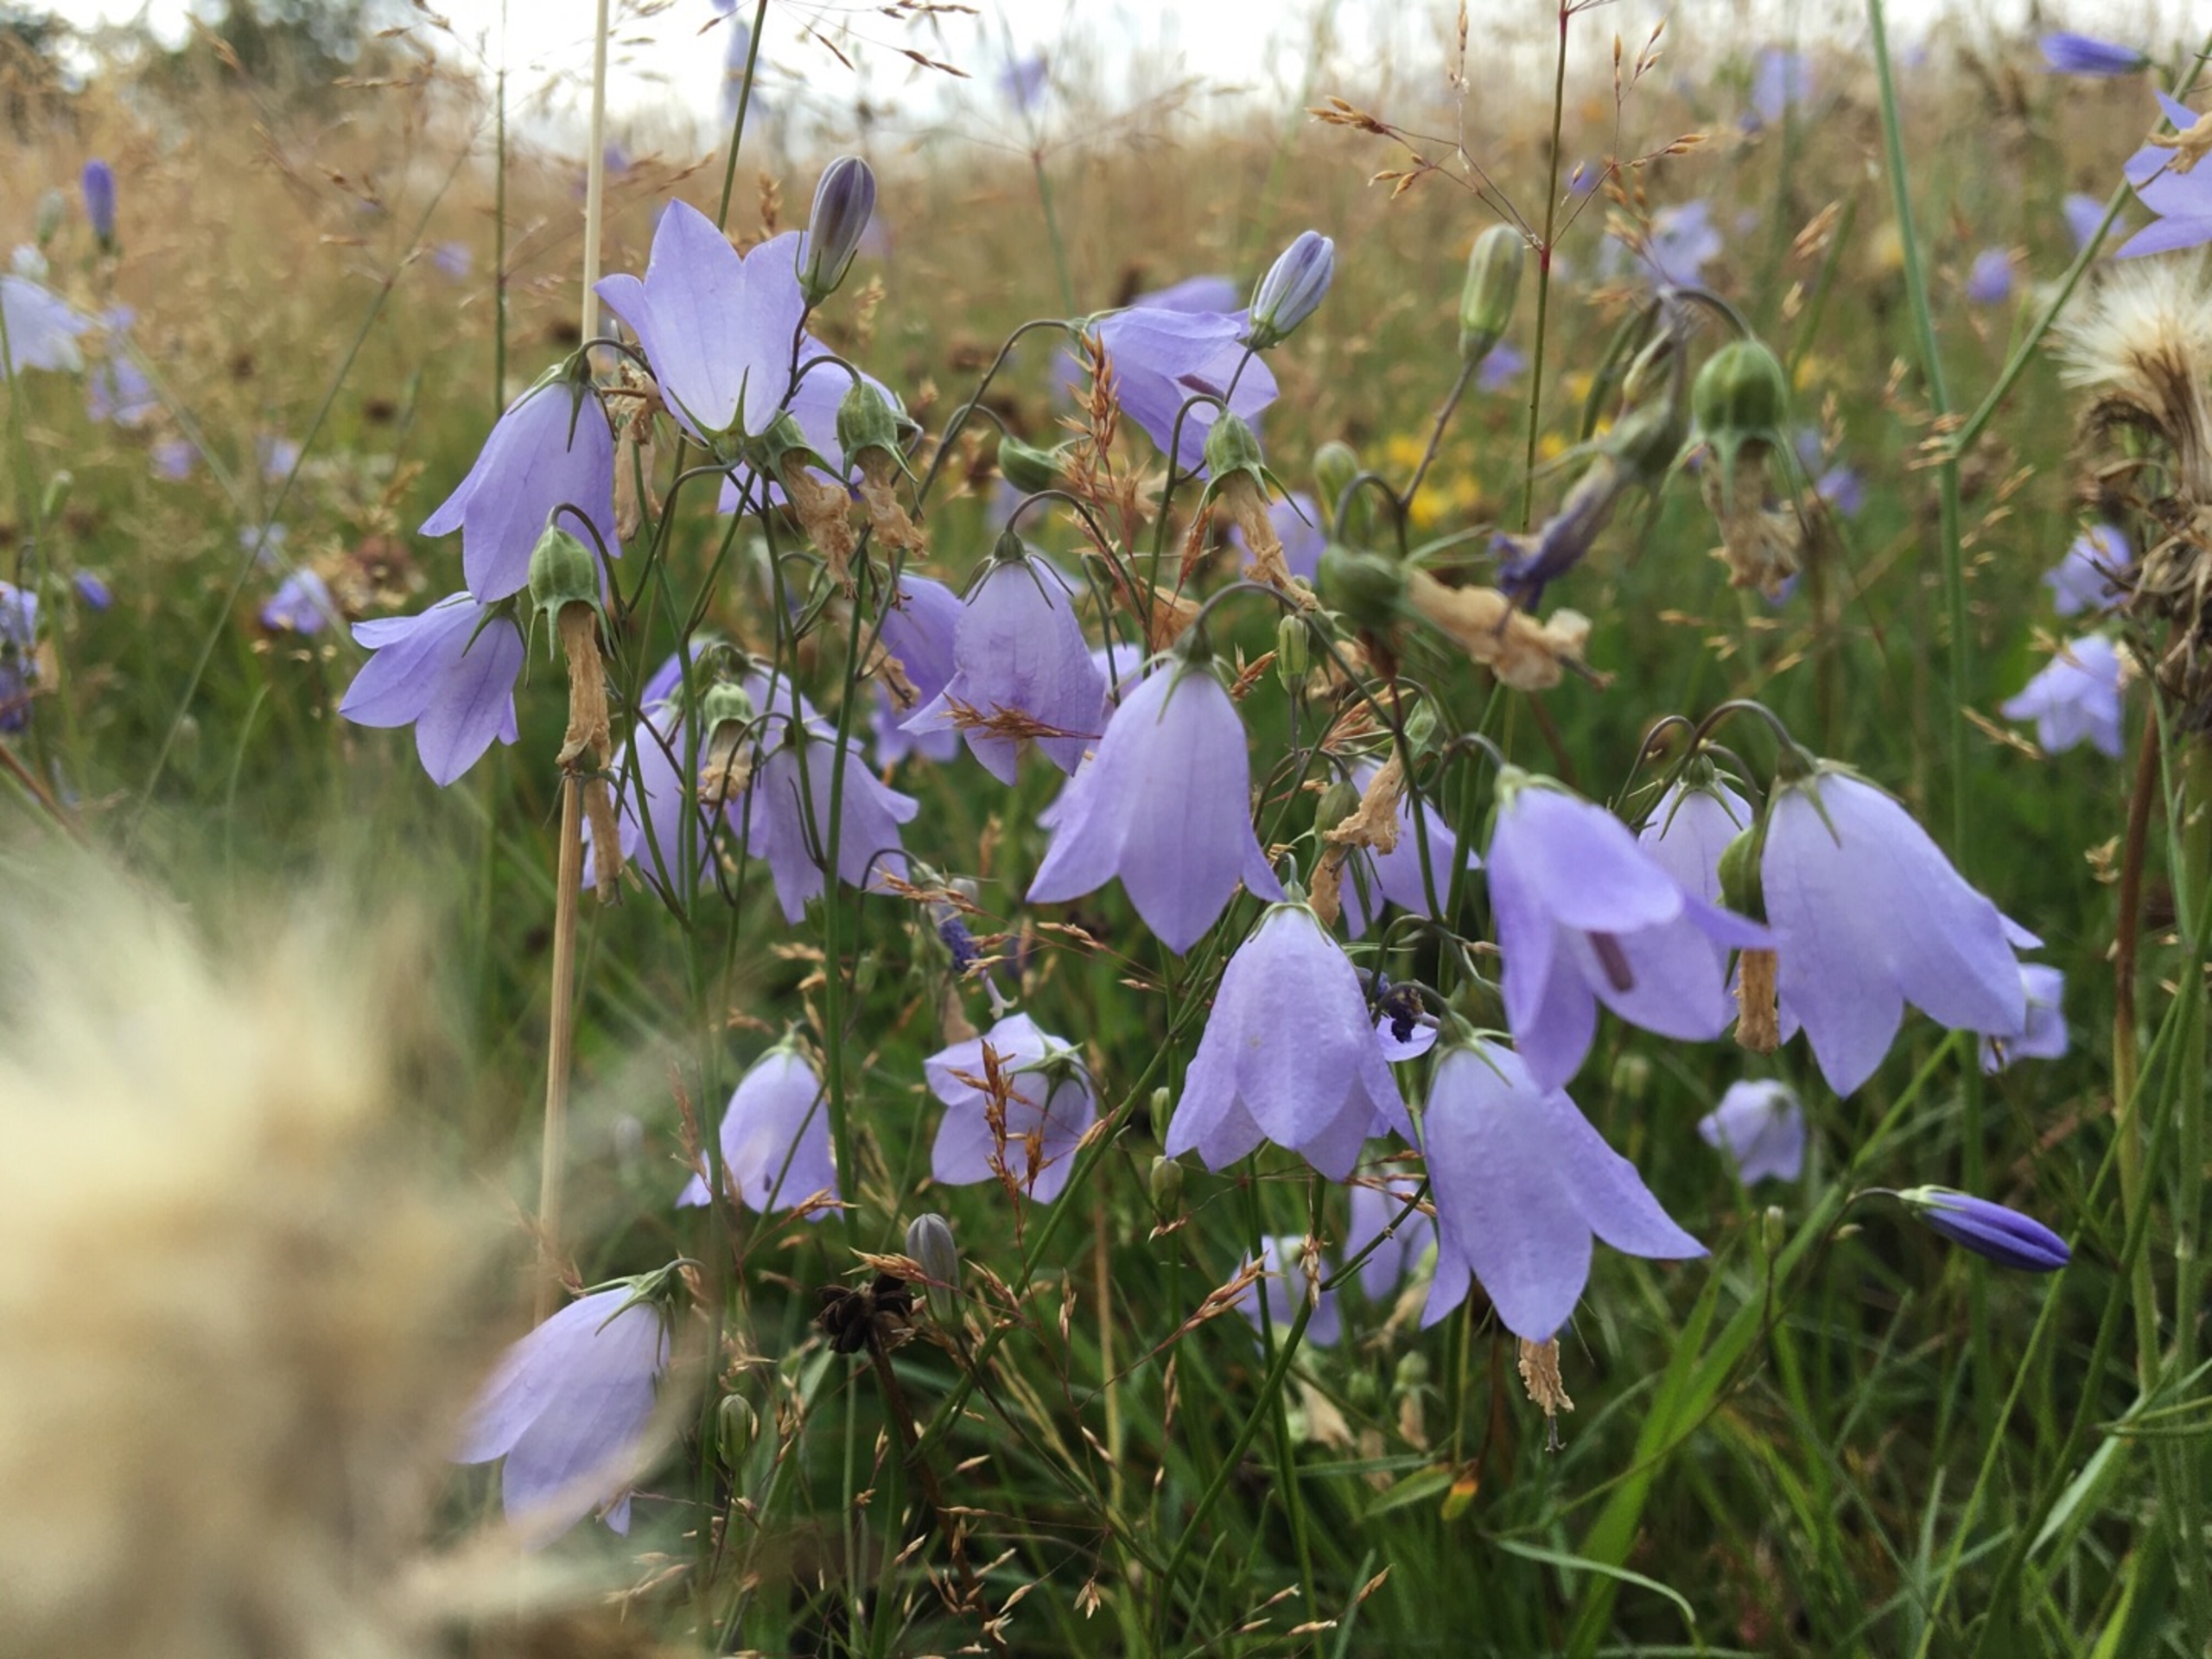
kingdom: Plantae
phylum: Tracheophyta
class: Magnoliopsida
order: Asterales
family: Campanulaceae
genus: Campanula
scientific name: Campanula rotundifolia
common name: Liden klokke
